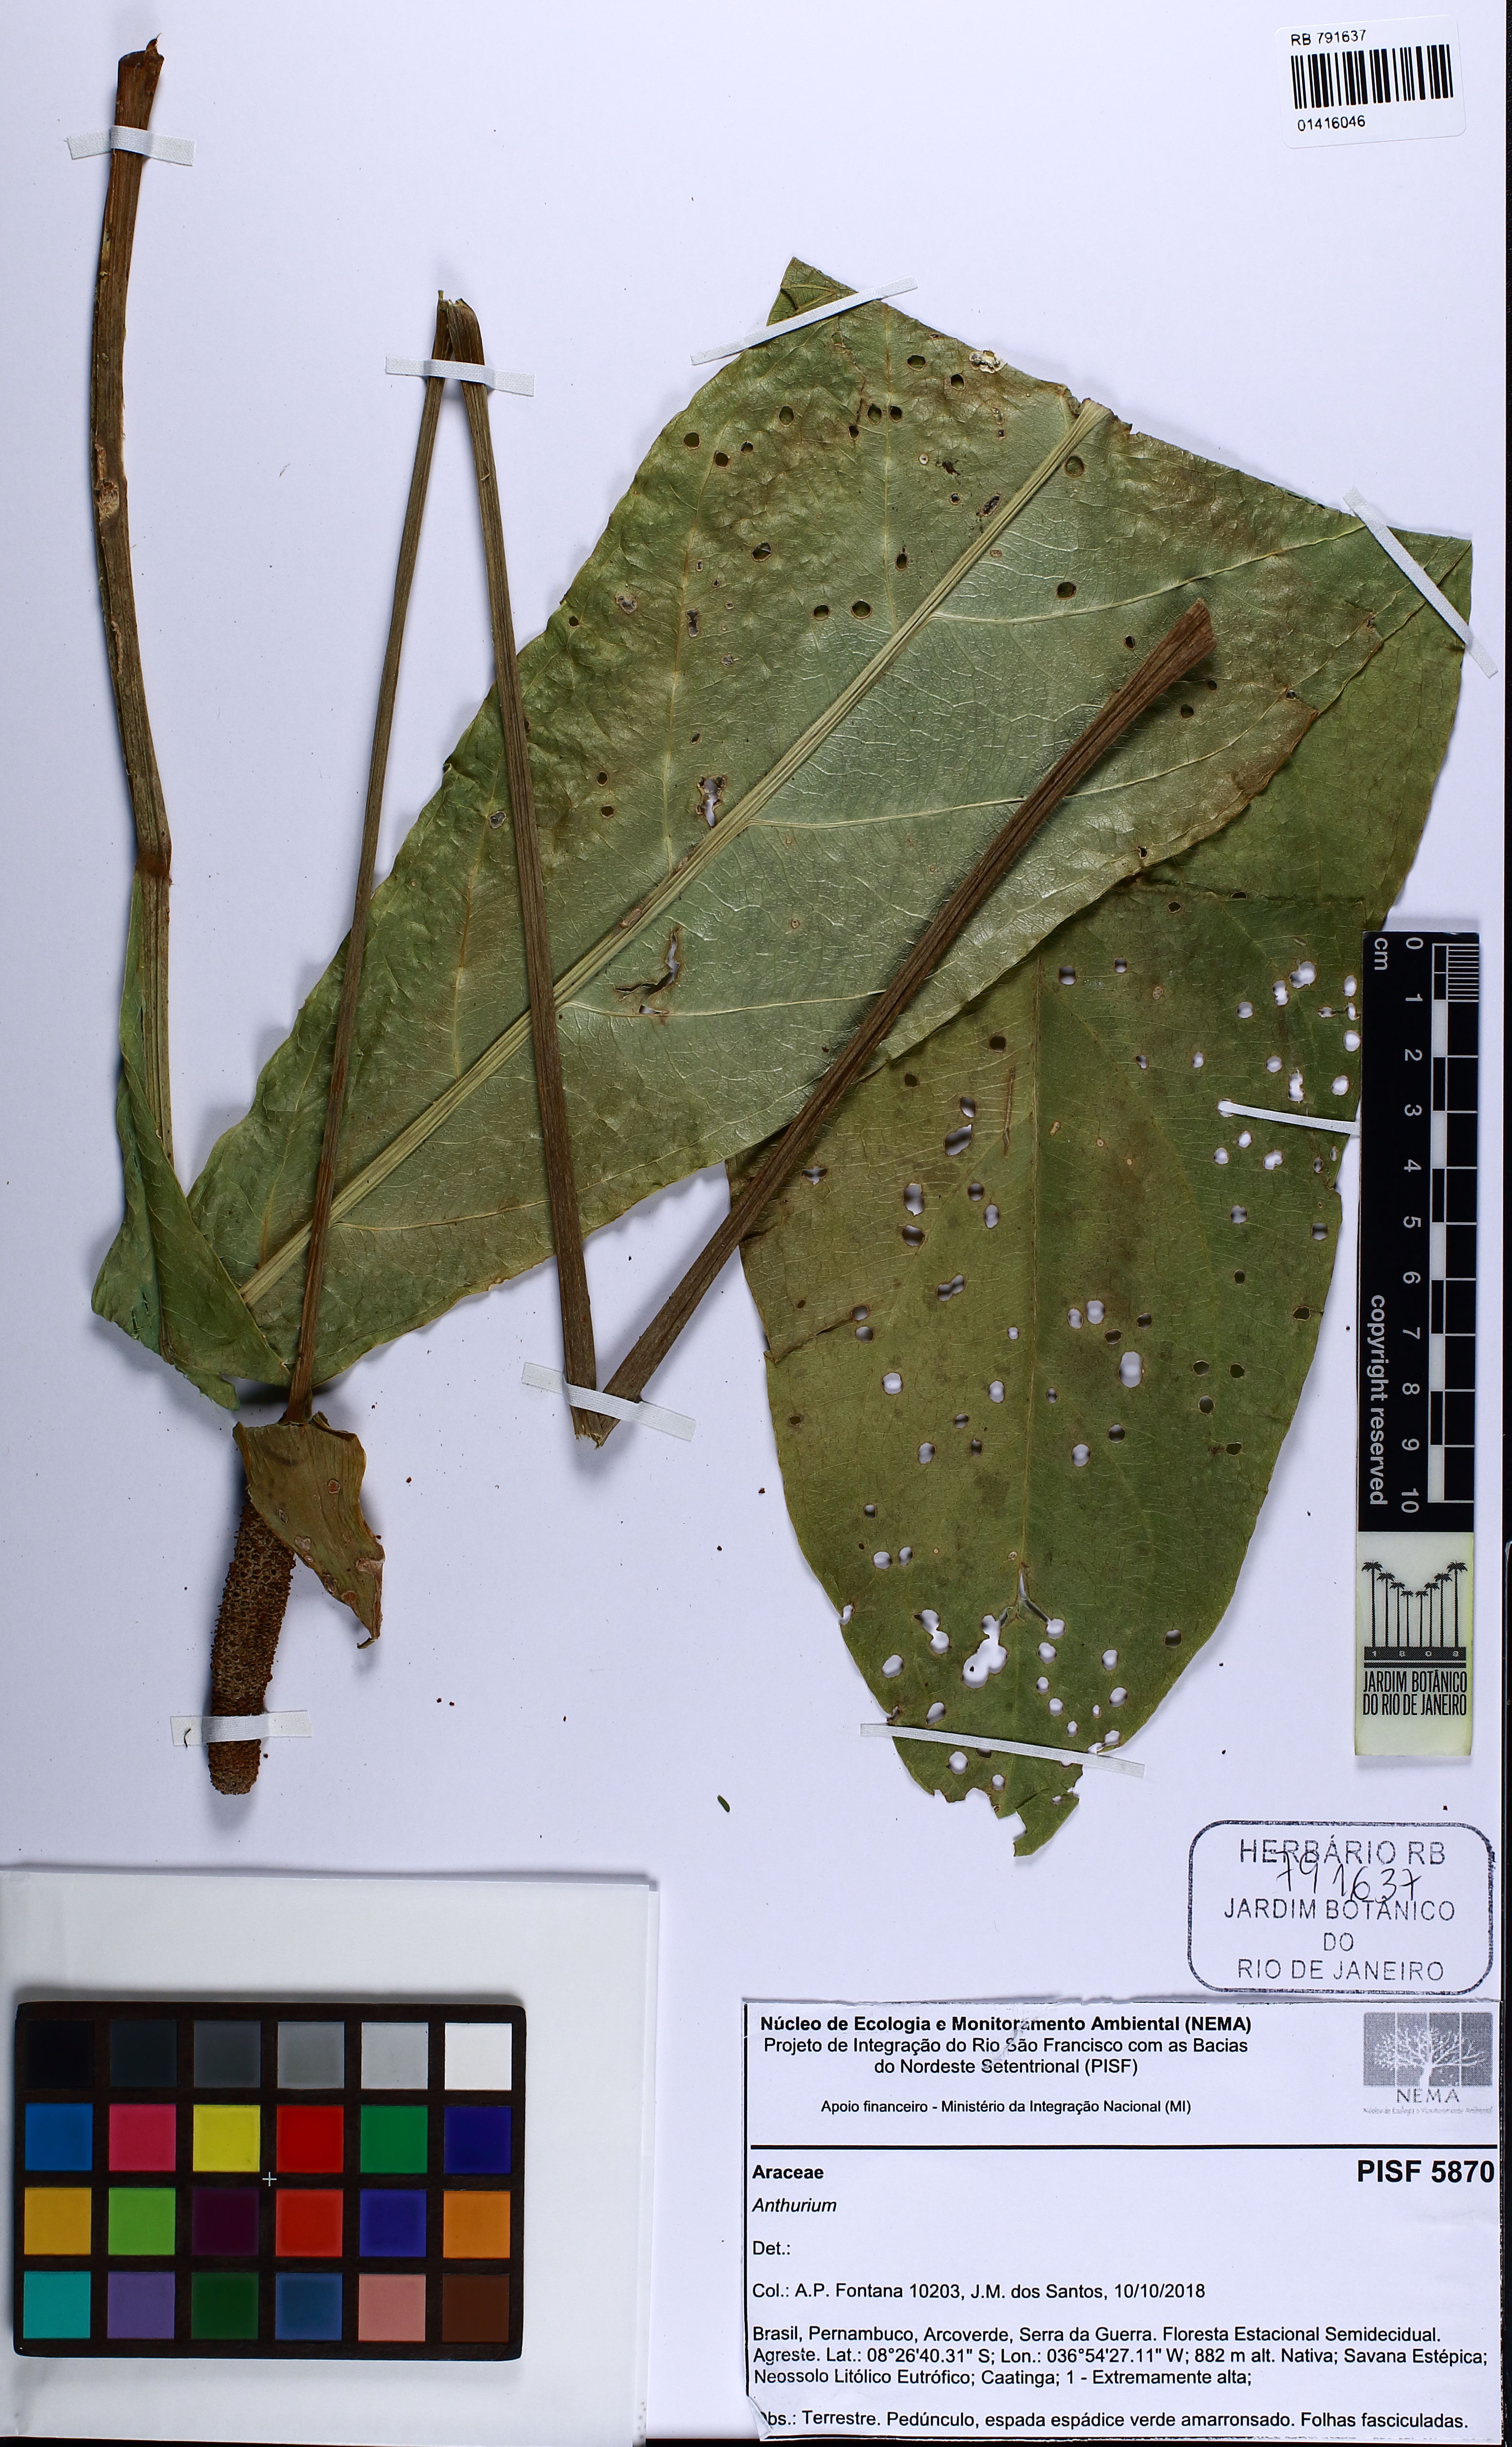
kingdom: Plantae
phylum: Tracheophyta
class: Liliopsida
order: Alismatales
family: Araceae
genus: Anthurium
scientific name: Anthurium
